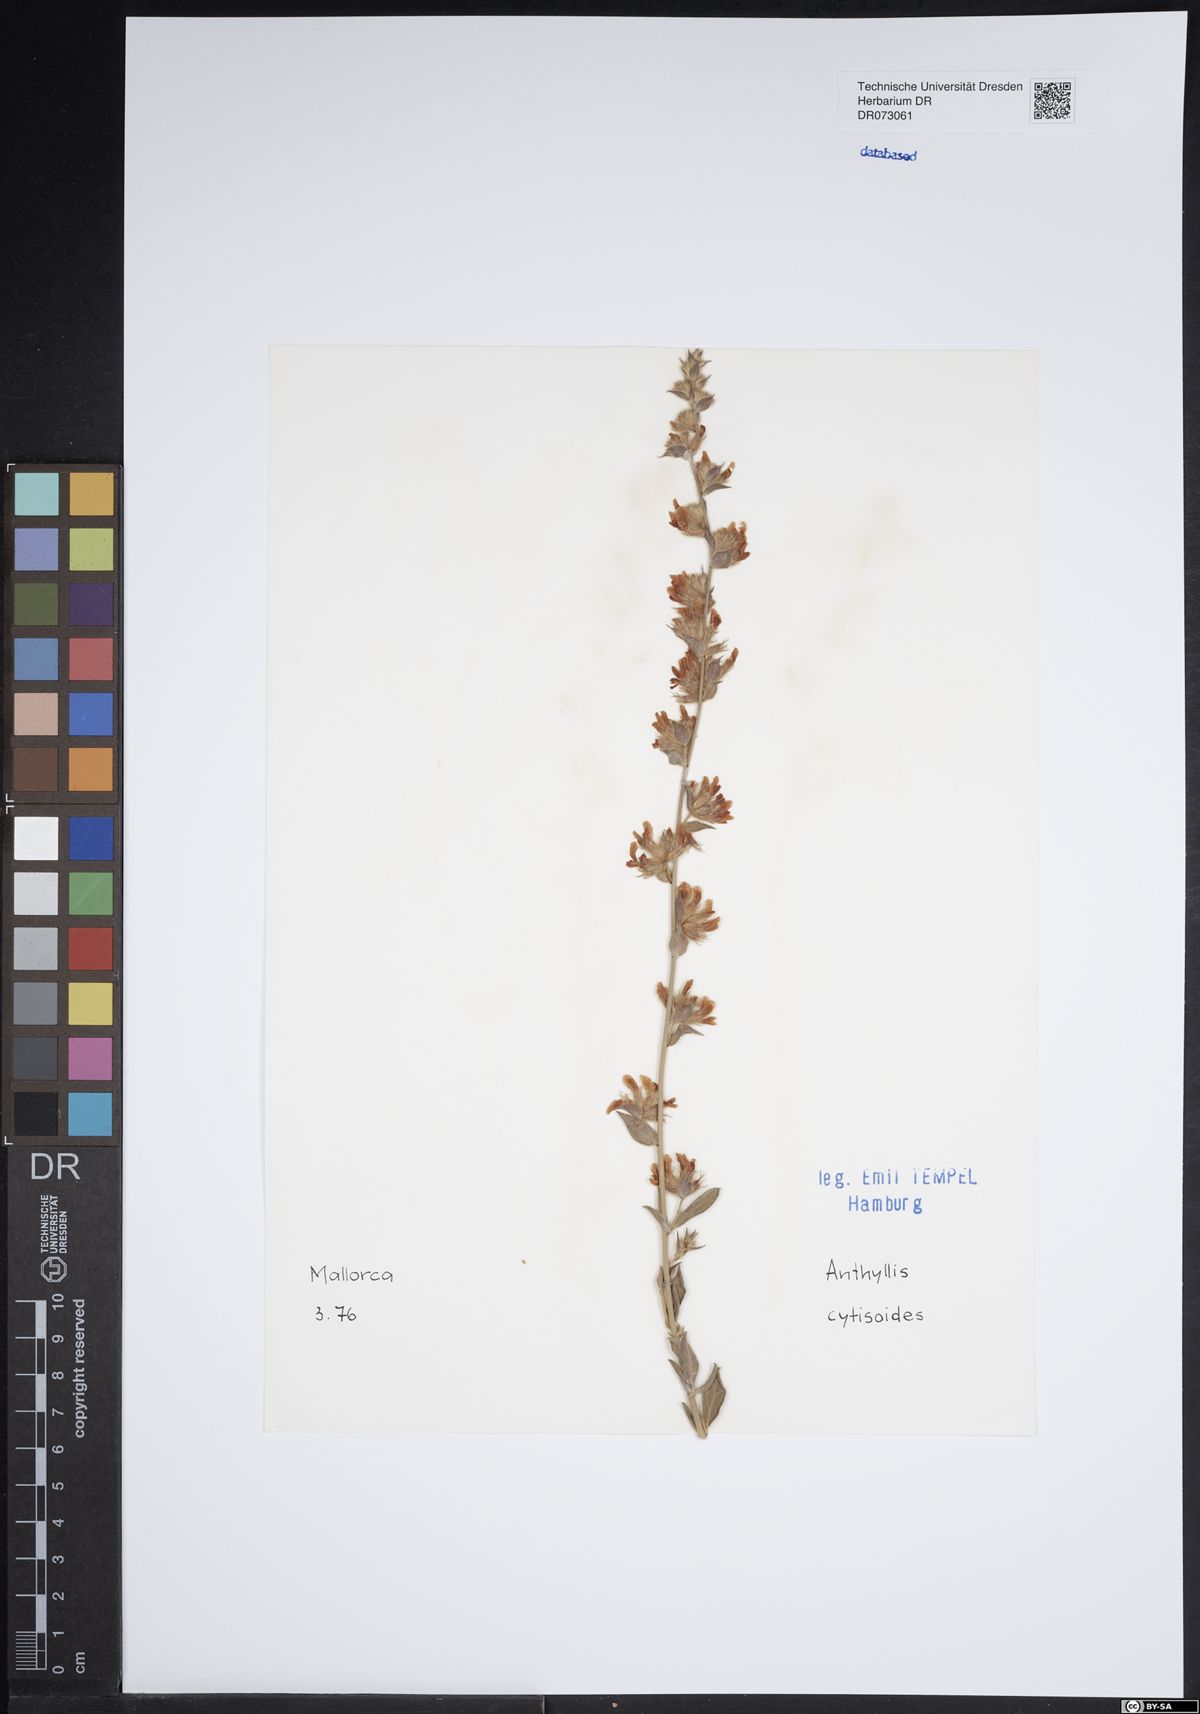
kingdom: Plantae
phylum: Tracheophyta
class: Magnoliopsida
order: Fabales
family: Fabaceae
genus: Anthyllis
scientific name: Anthyllis cytisoides
